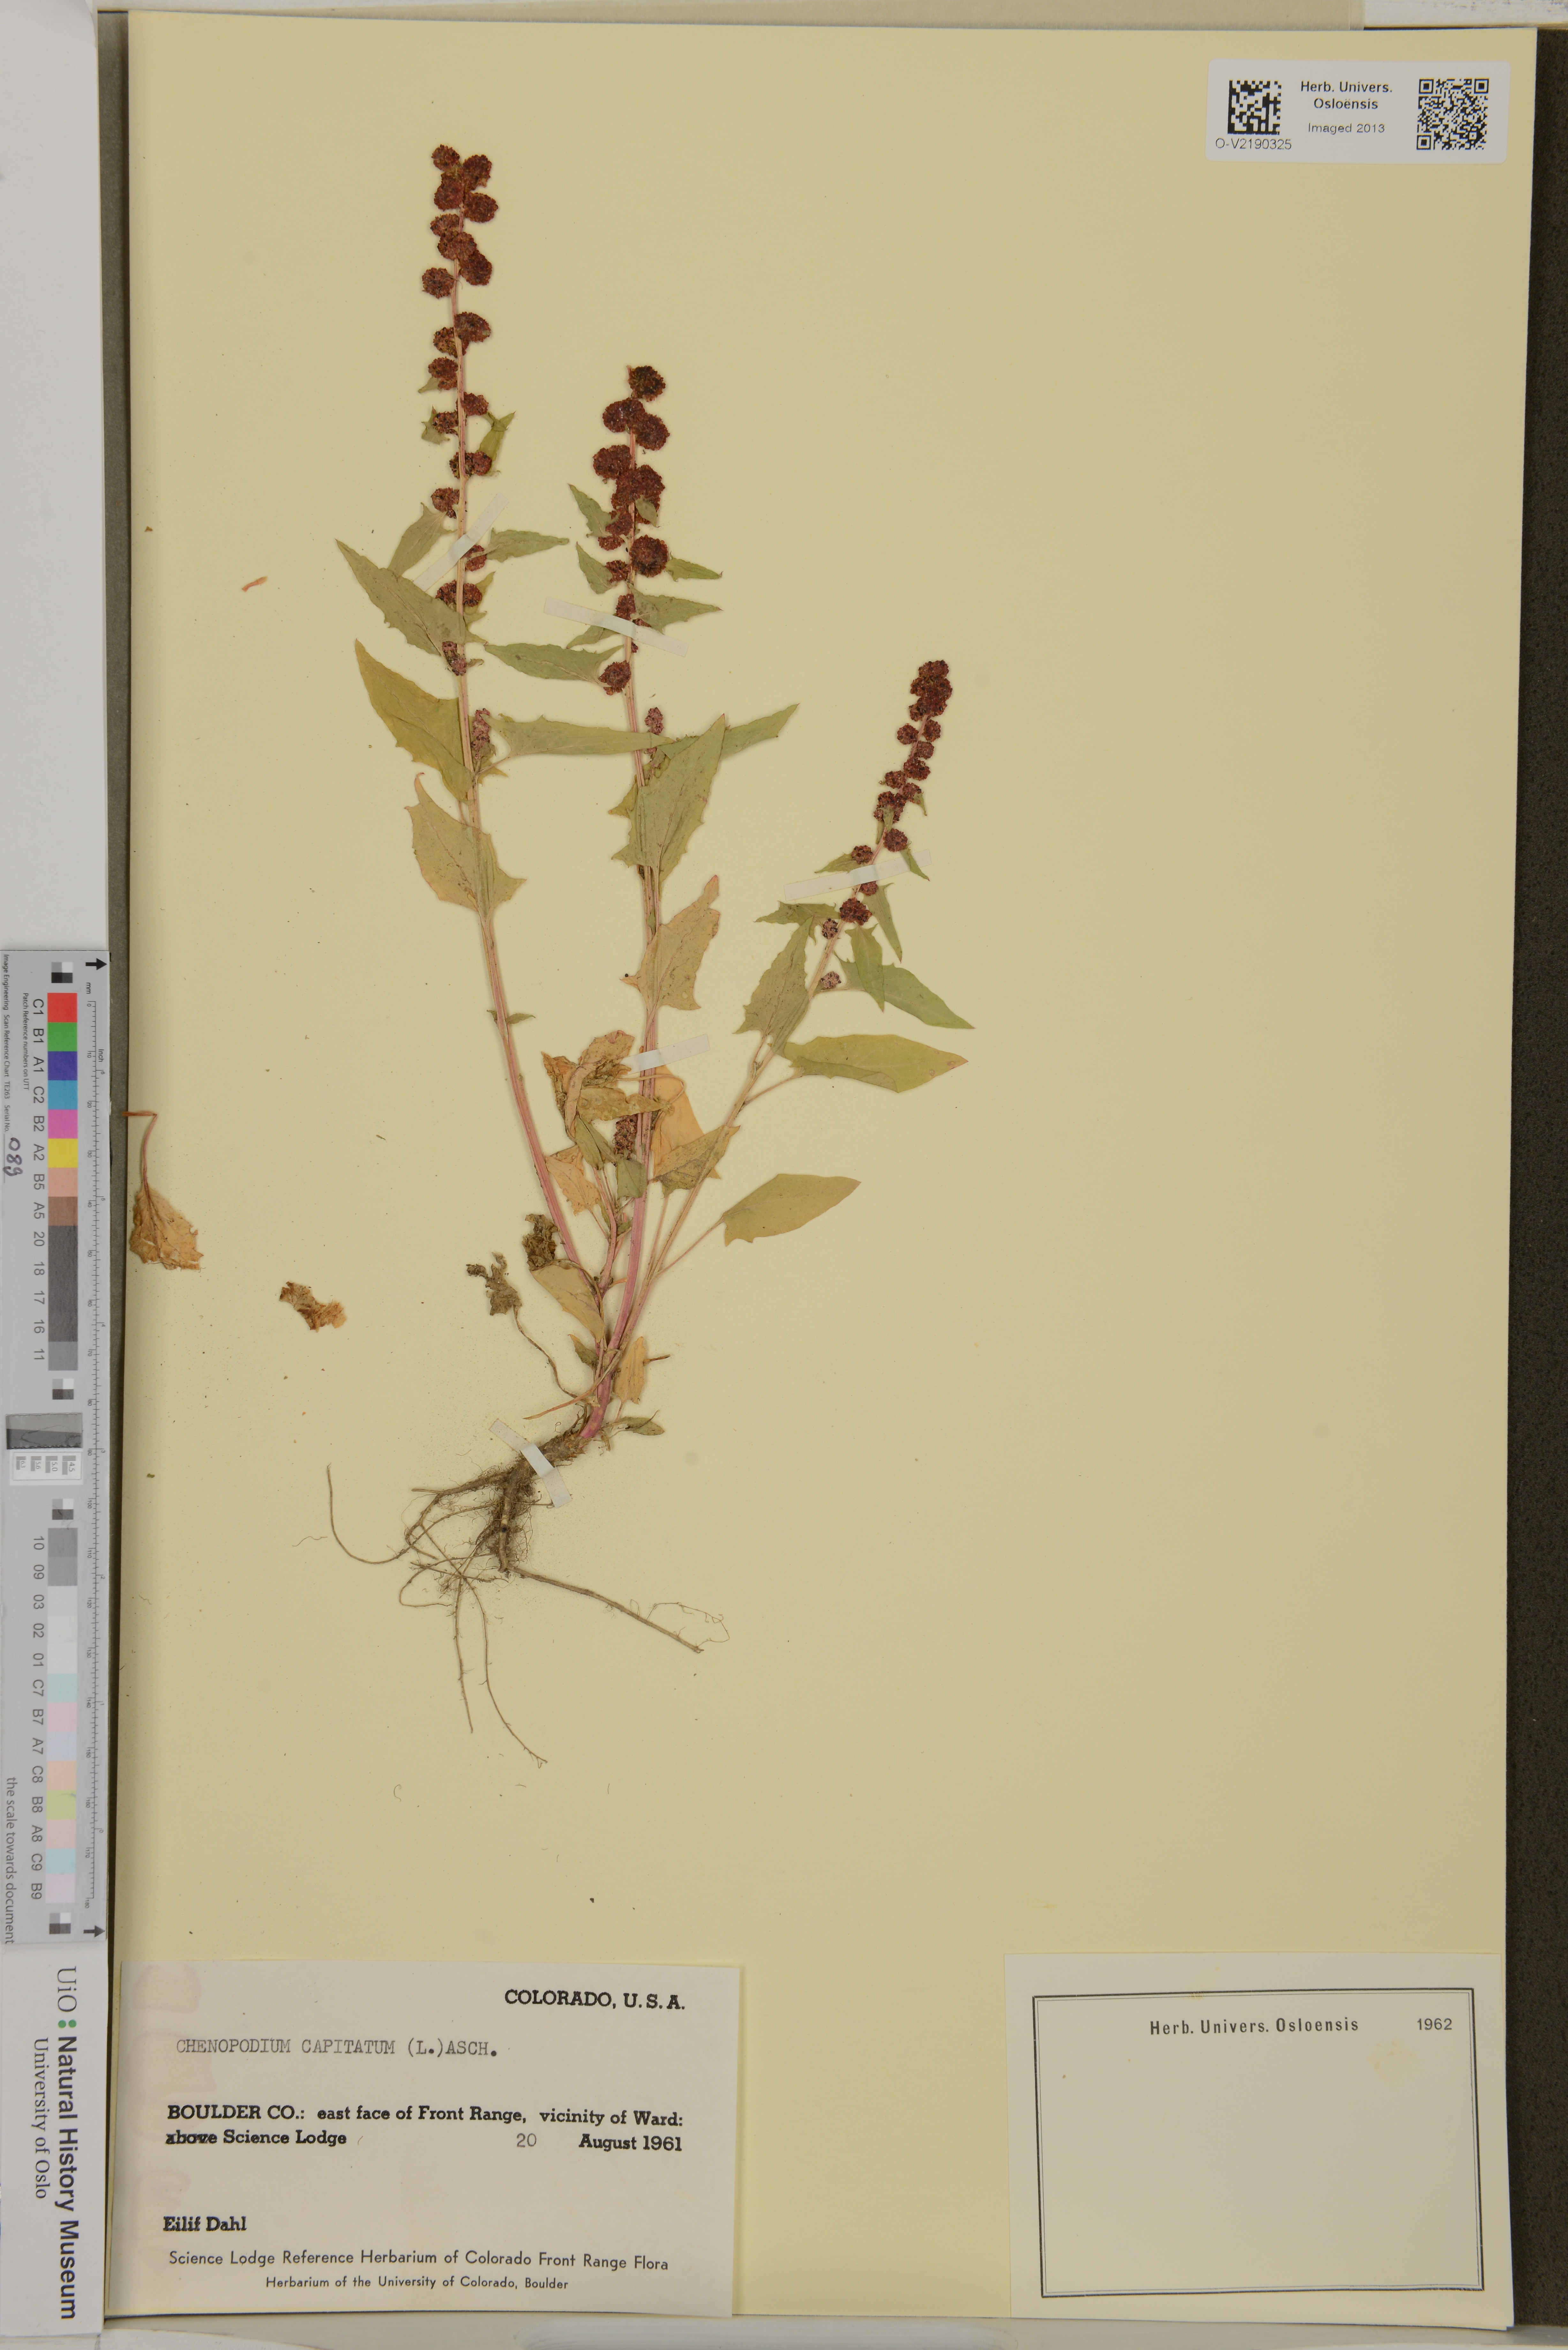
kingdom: Plantae
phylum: Tracheophyta
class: Magnoliopsida
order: Caryophyllales
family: Amaranthaceae
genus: Blitum
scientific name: Blitum capitatum
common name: Strawberry-blight
